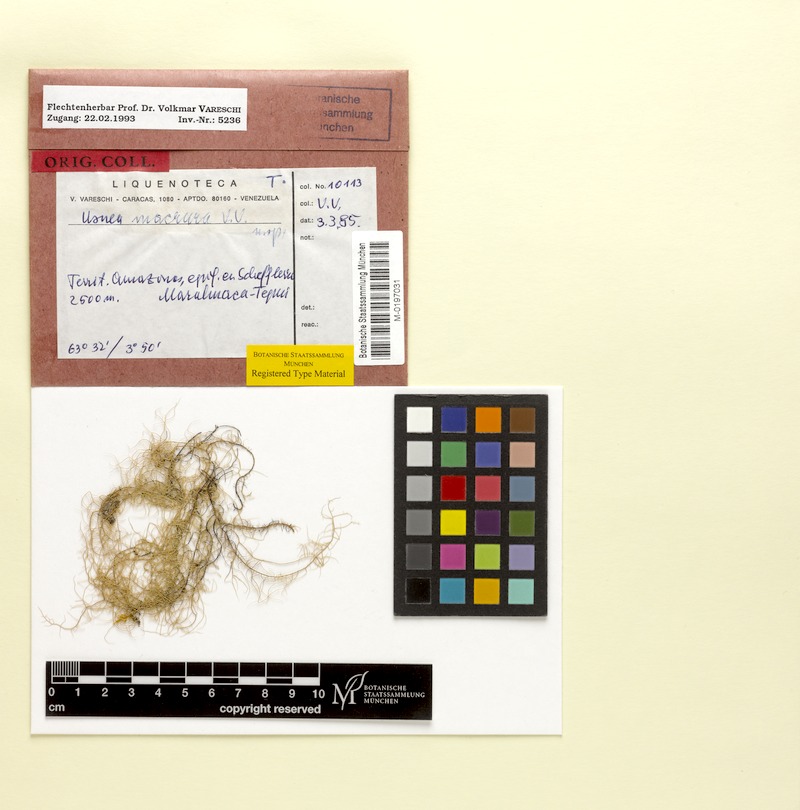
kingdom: Fungi
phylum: Ascomycota
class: Lecanoromycetes
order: Lecanorales
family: Parmeliaceae
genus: Usnea
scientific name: Usnea columbiana
